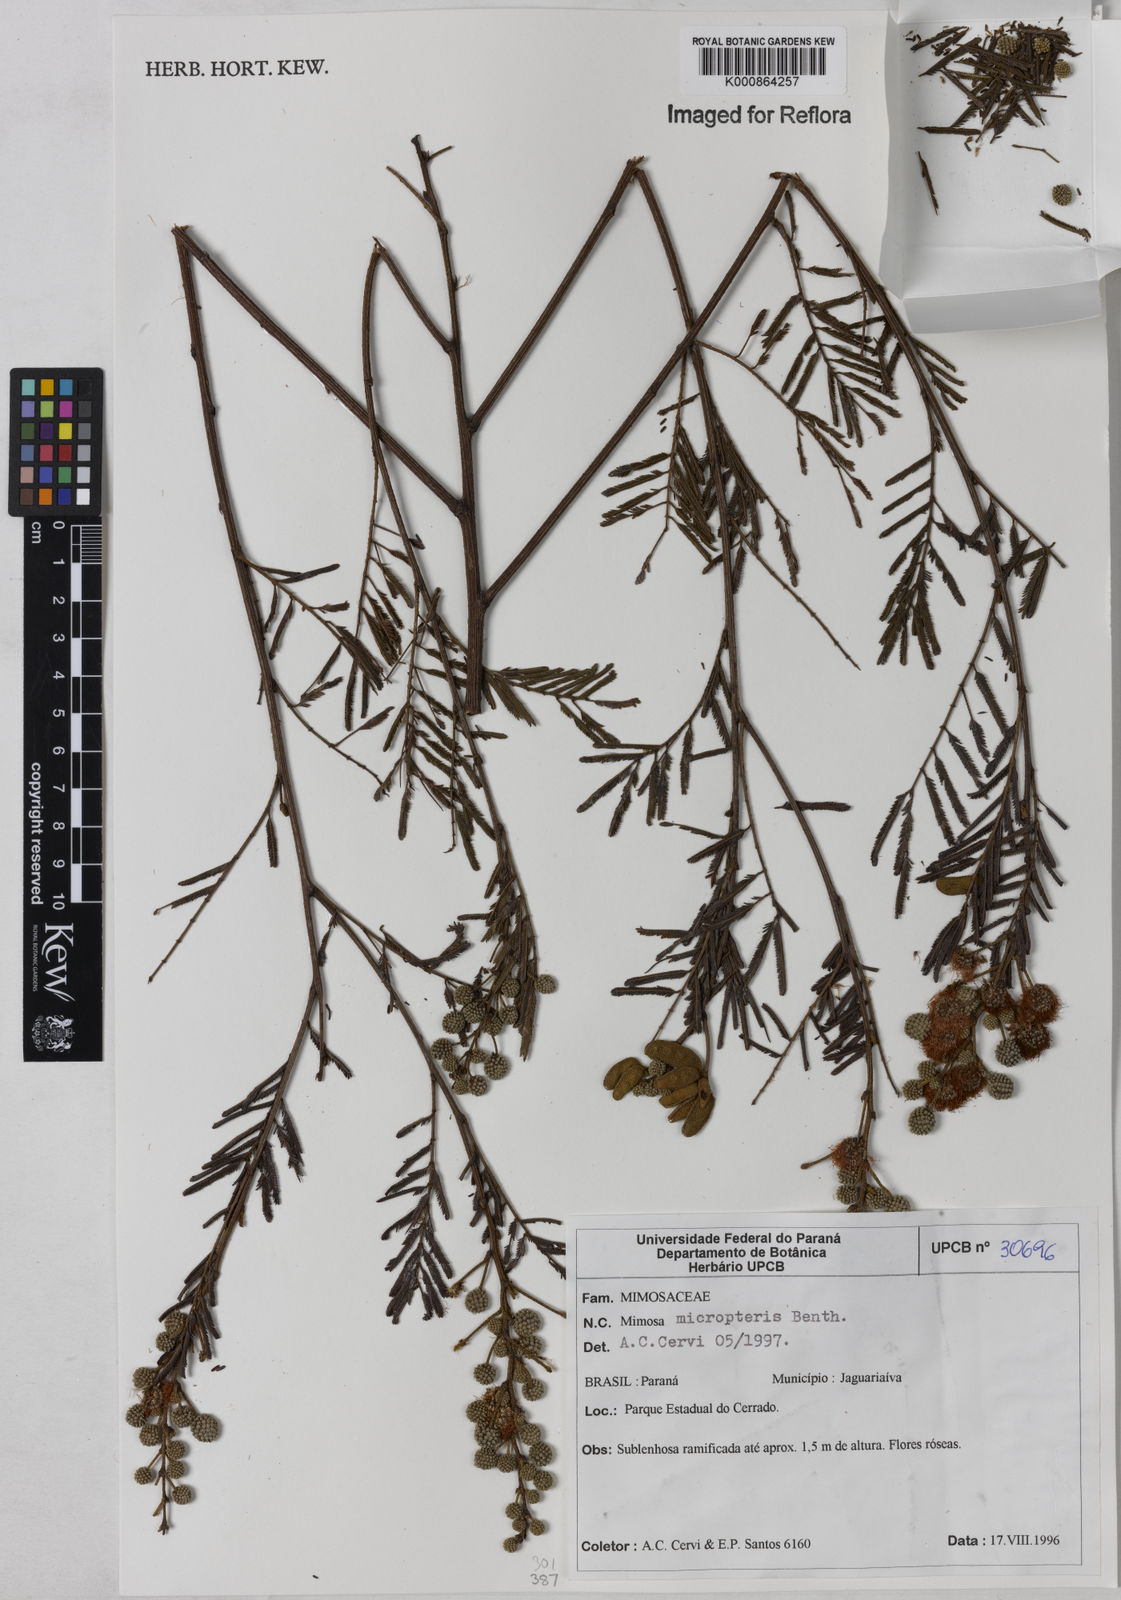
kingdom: Plantae
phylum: Tracheophyta
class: Magnoliopsida
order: Fabales
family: Fabaceae
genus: Mimosa
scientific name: Mimosa micropteris
